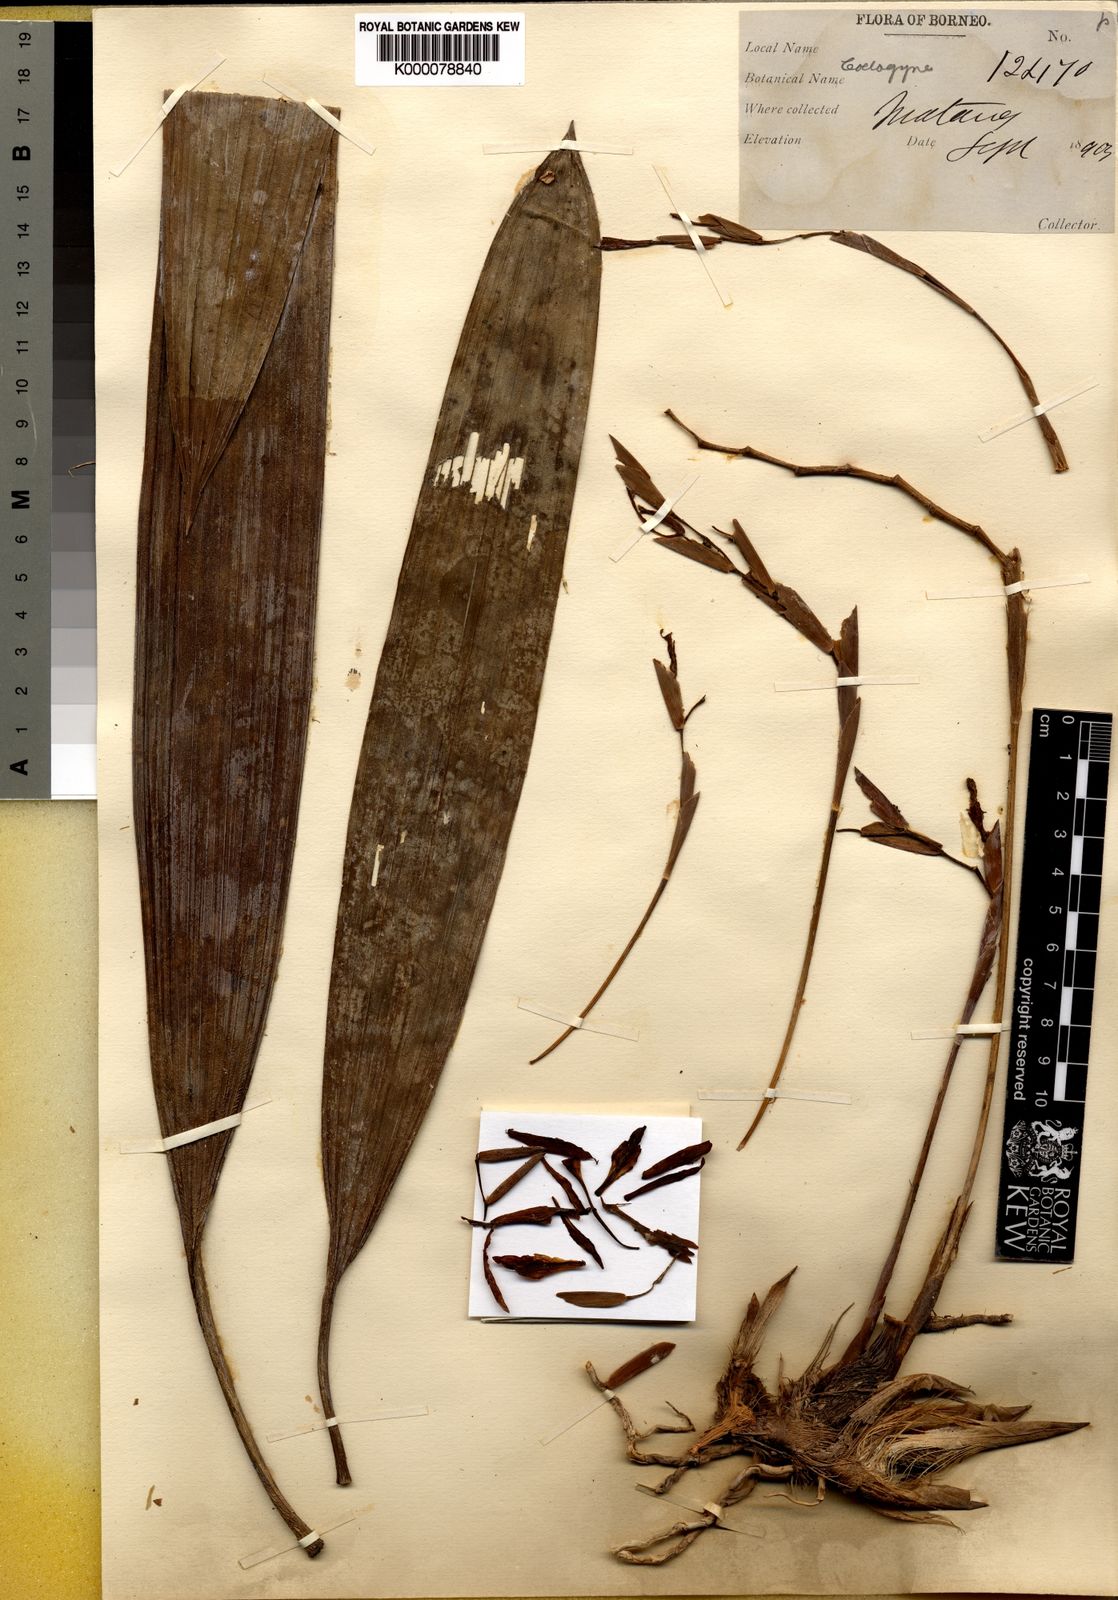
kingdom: Plantae
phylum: Tracheophyta
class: Liliopsida
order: Asparagales
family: Orchidaceae
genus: Coelogyne
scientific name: Coelogyne exalata
